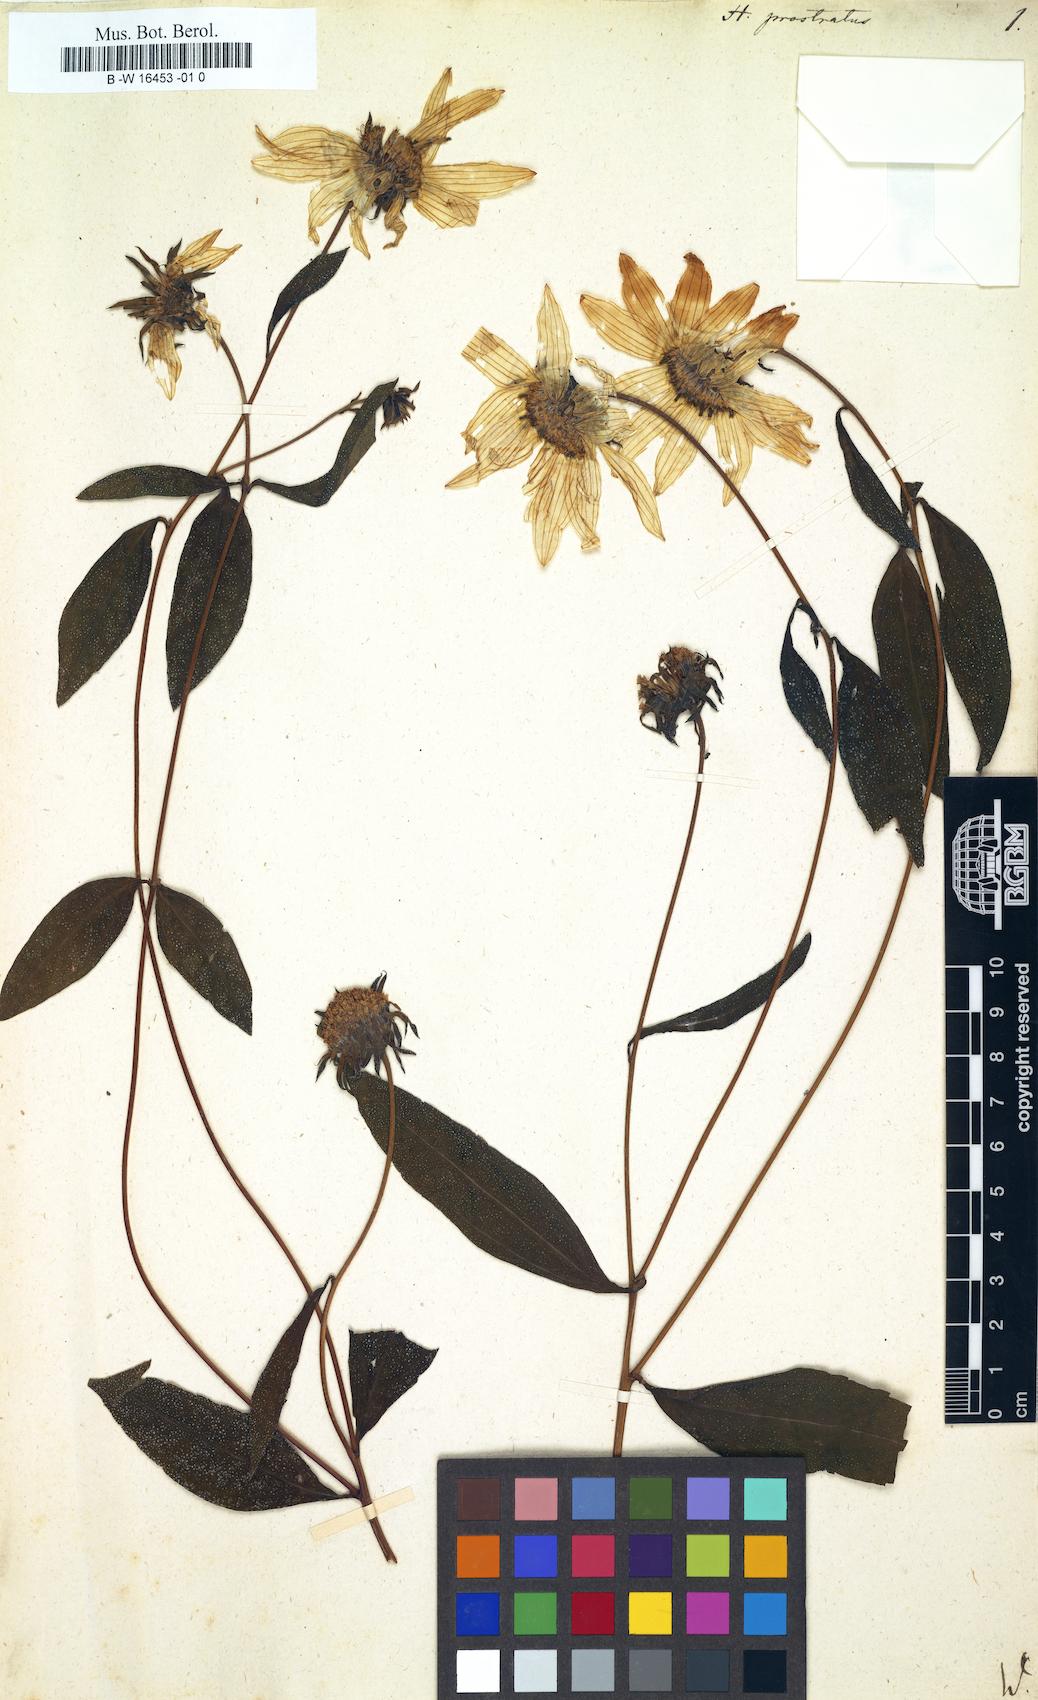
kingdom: Plantae
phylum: Tracheophyta
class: Magnoliopsida
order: Asterales
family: Asteraceae
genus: Helianthus
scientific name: Helianthus decapetalus
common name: Thin-leaved sunflower
